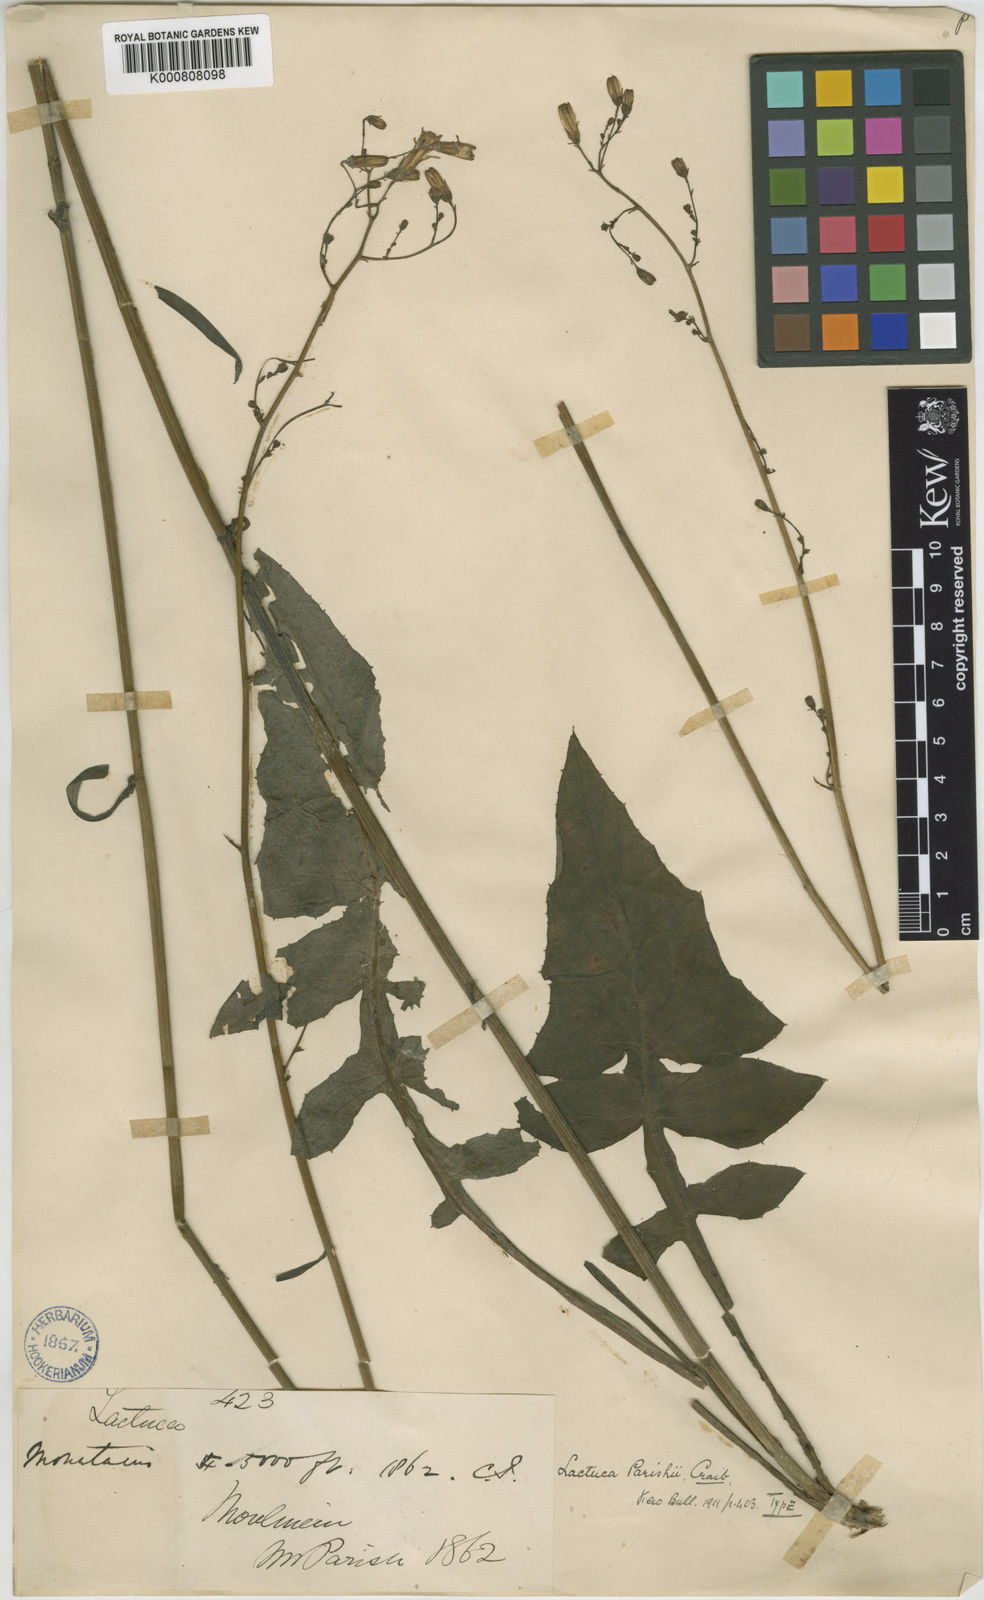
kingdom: Plantae
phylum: Tracheophyta
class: Magnoliopsida
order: Asterales
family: Asteraceae
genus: Lactuca
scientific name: Lactuca
